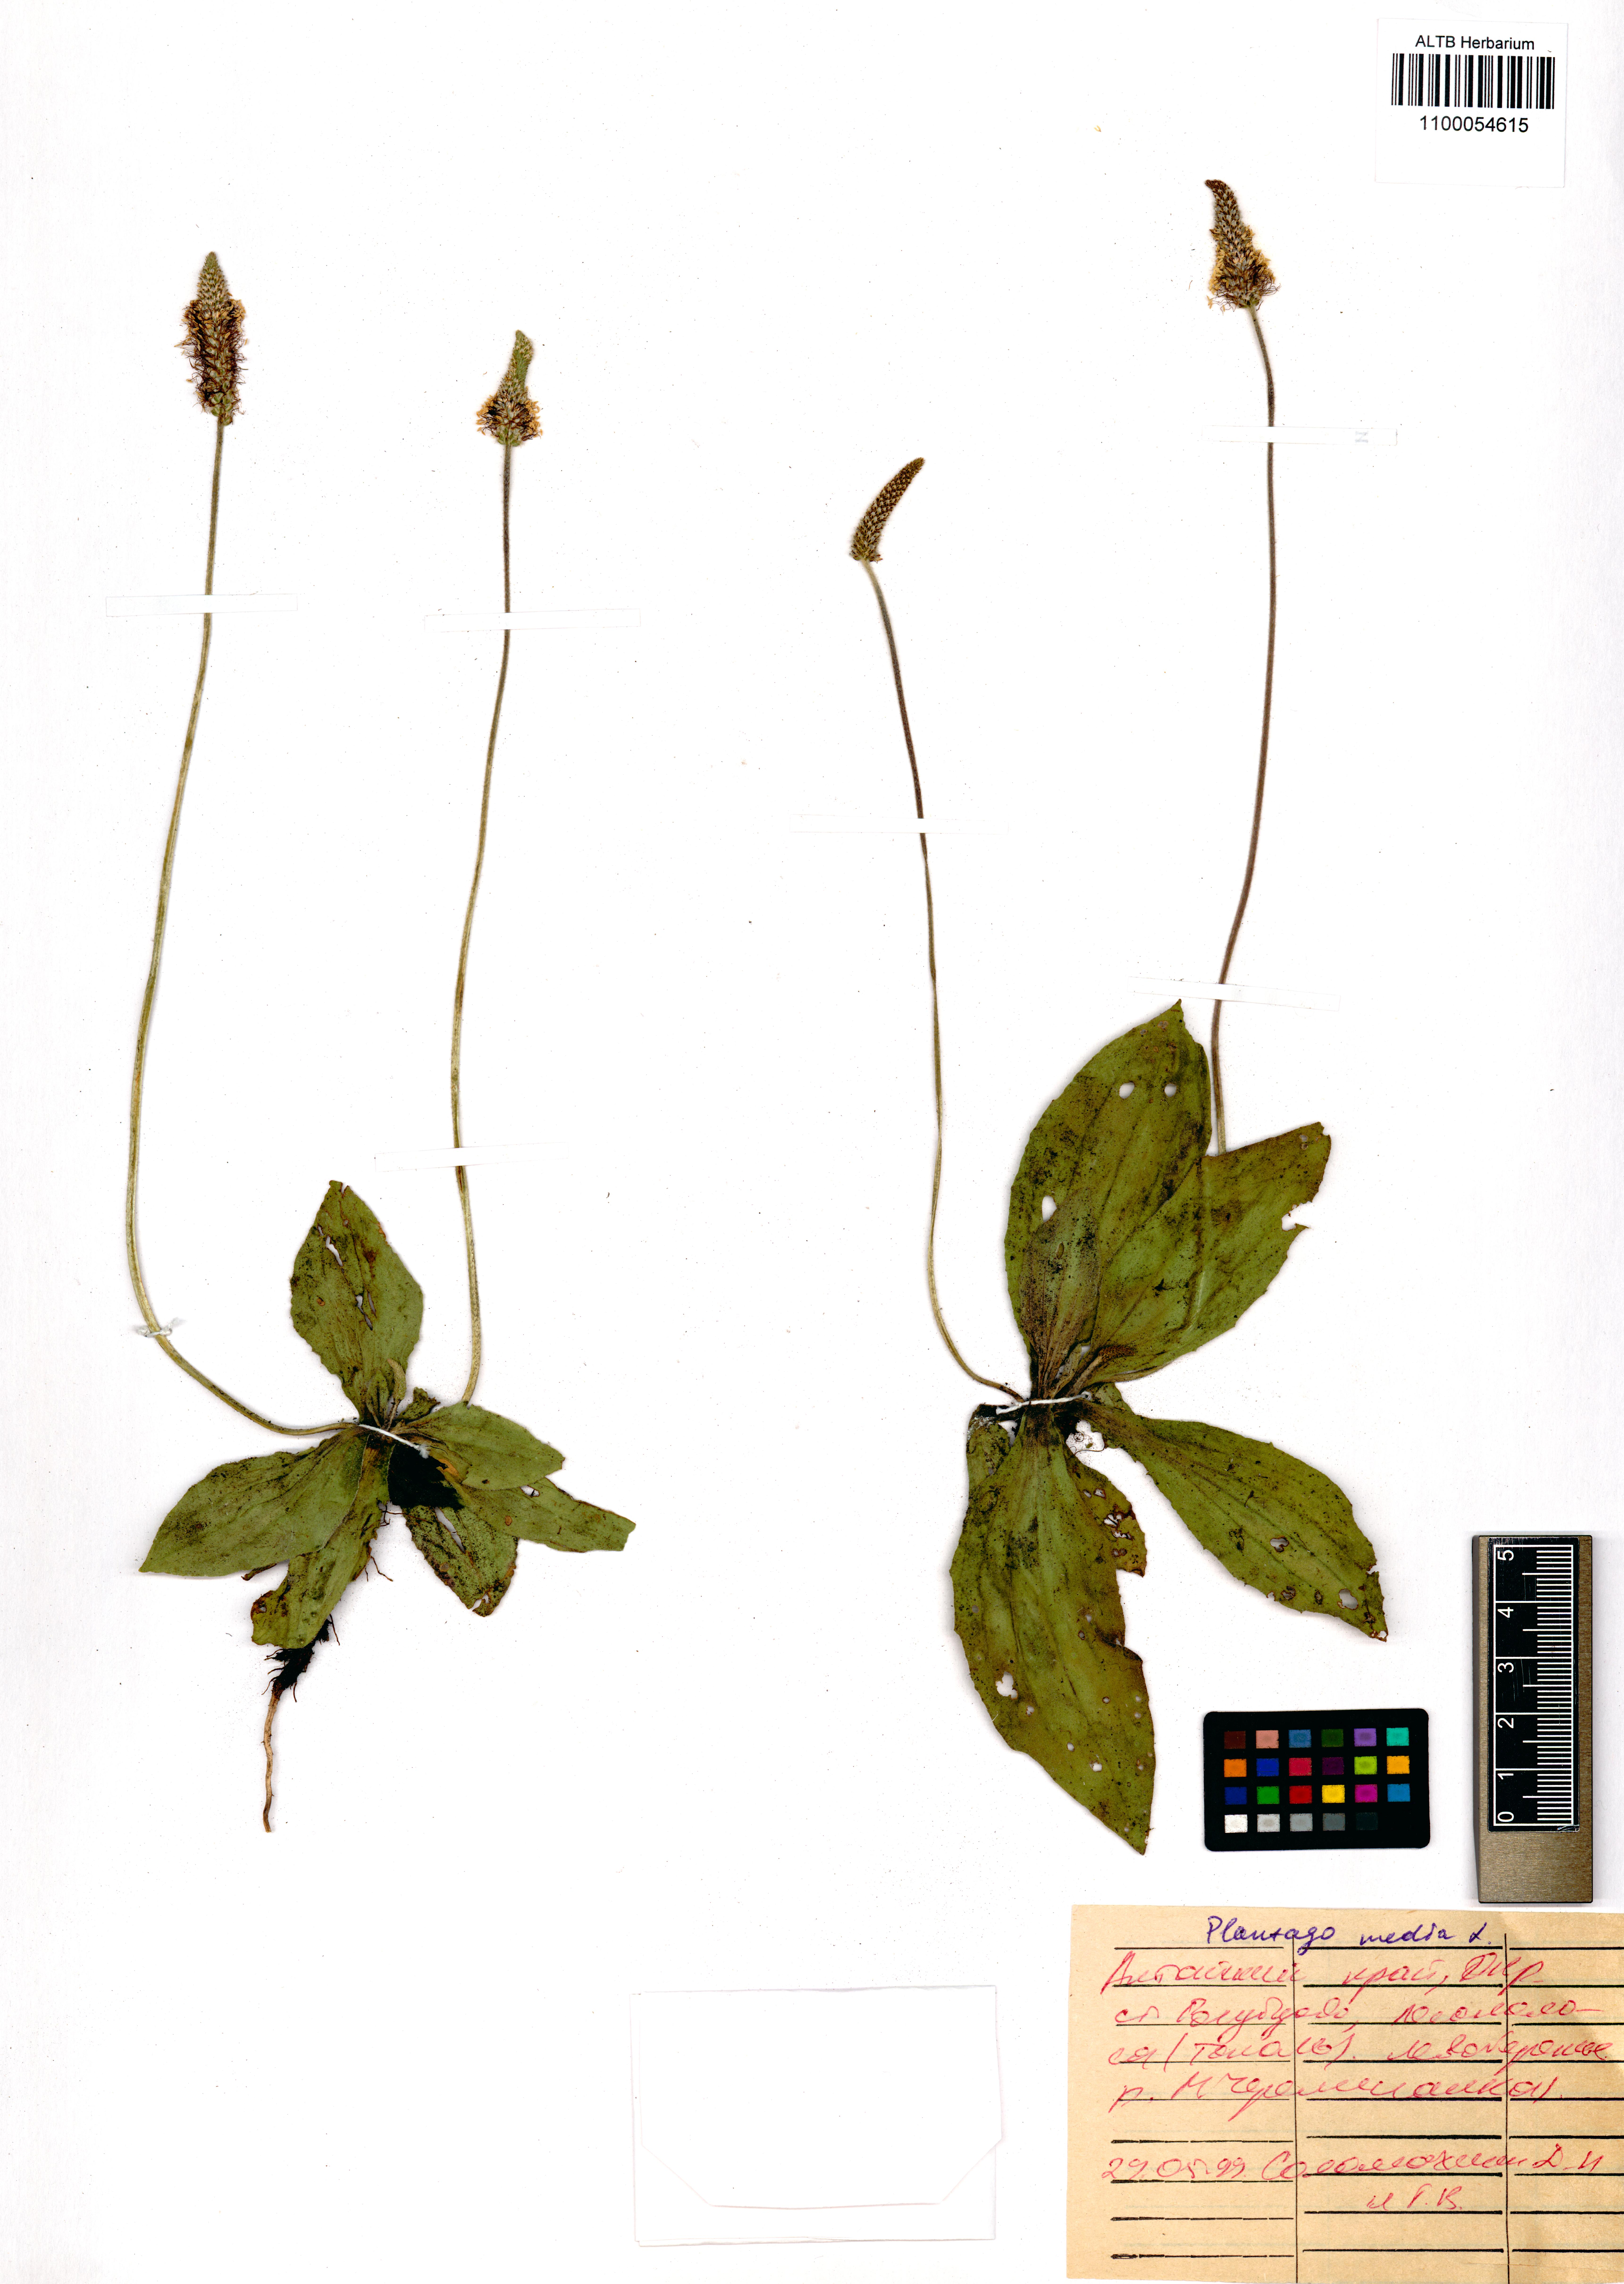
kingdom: Plantae
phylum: Tracheophyta
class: Magnoliopsida
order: Lamiales
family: Plantaginaceae
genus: Plantago
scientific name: Plantago media
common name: Hoary plantain
